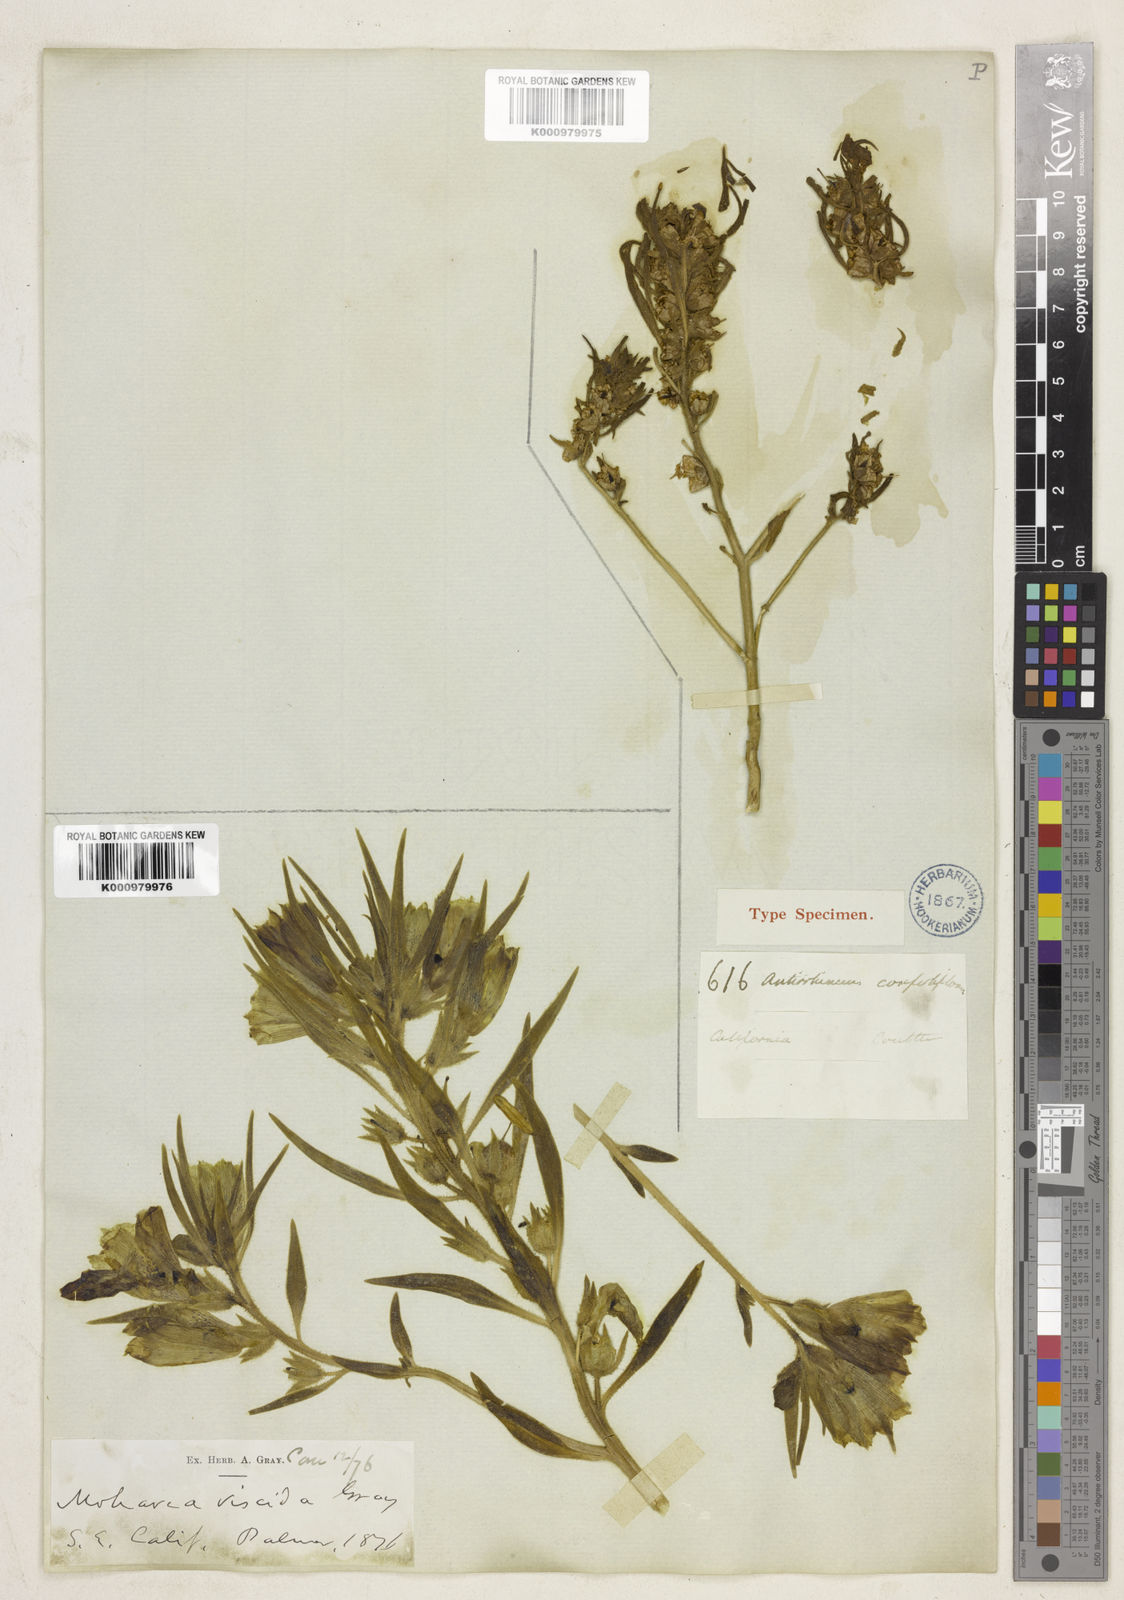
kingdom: Plantae
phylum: Tracheophyta
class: Magnoliopsida
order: Lamiales
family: Plantaginaceae
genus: Schweinfurthia
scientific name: Schweinfurthia
